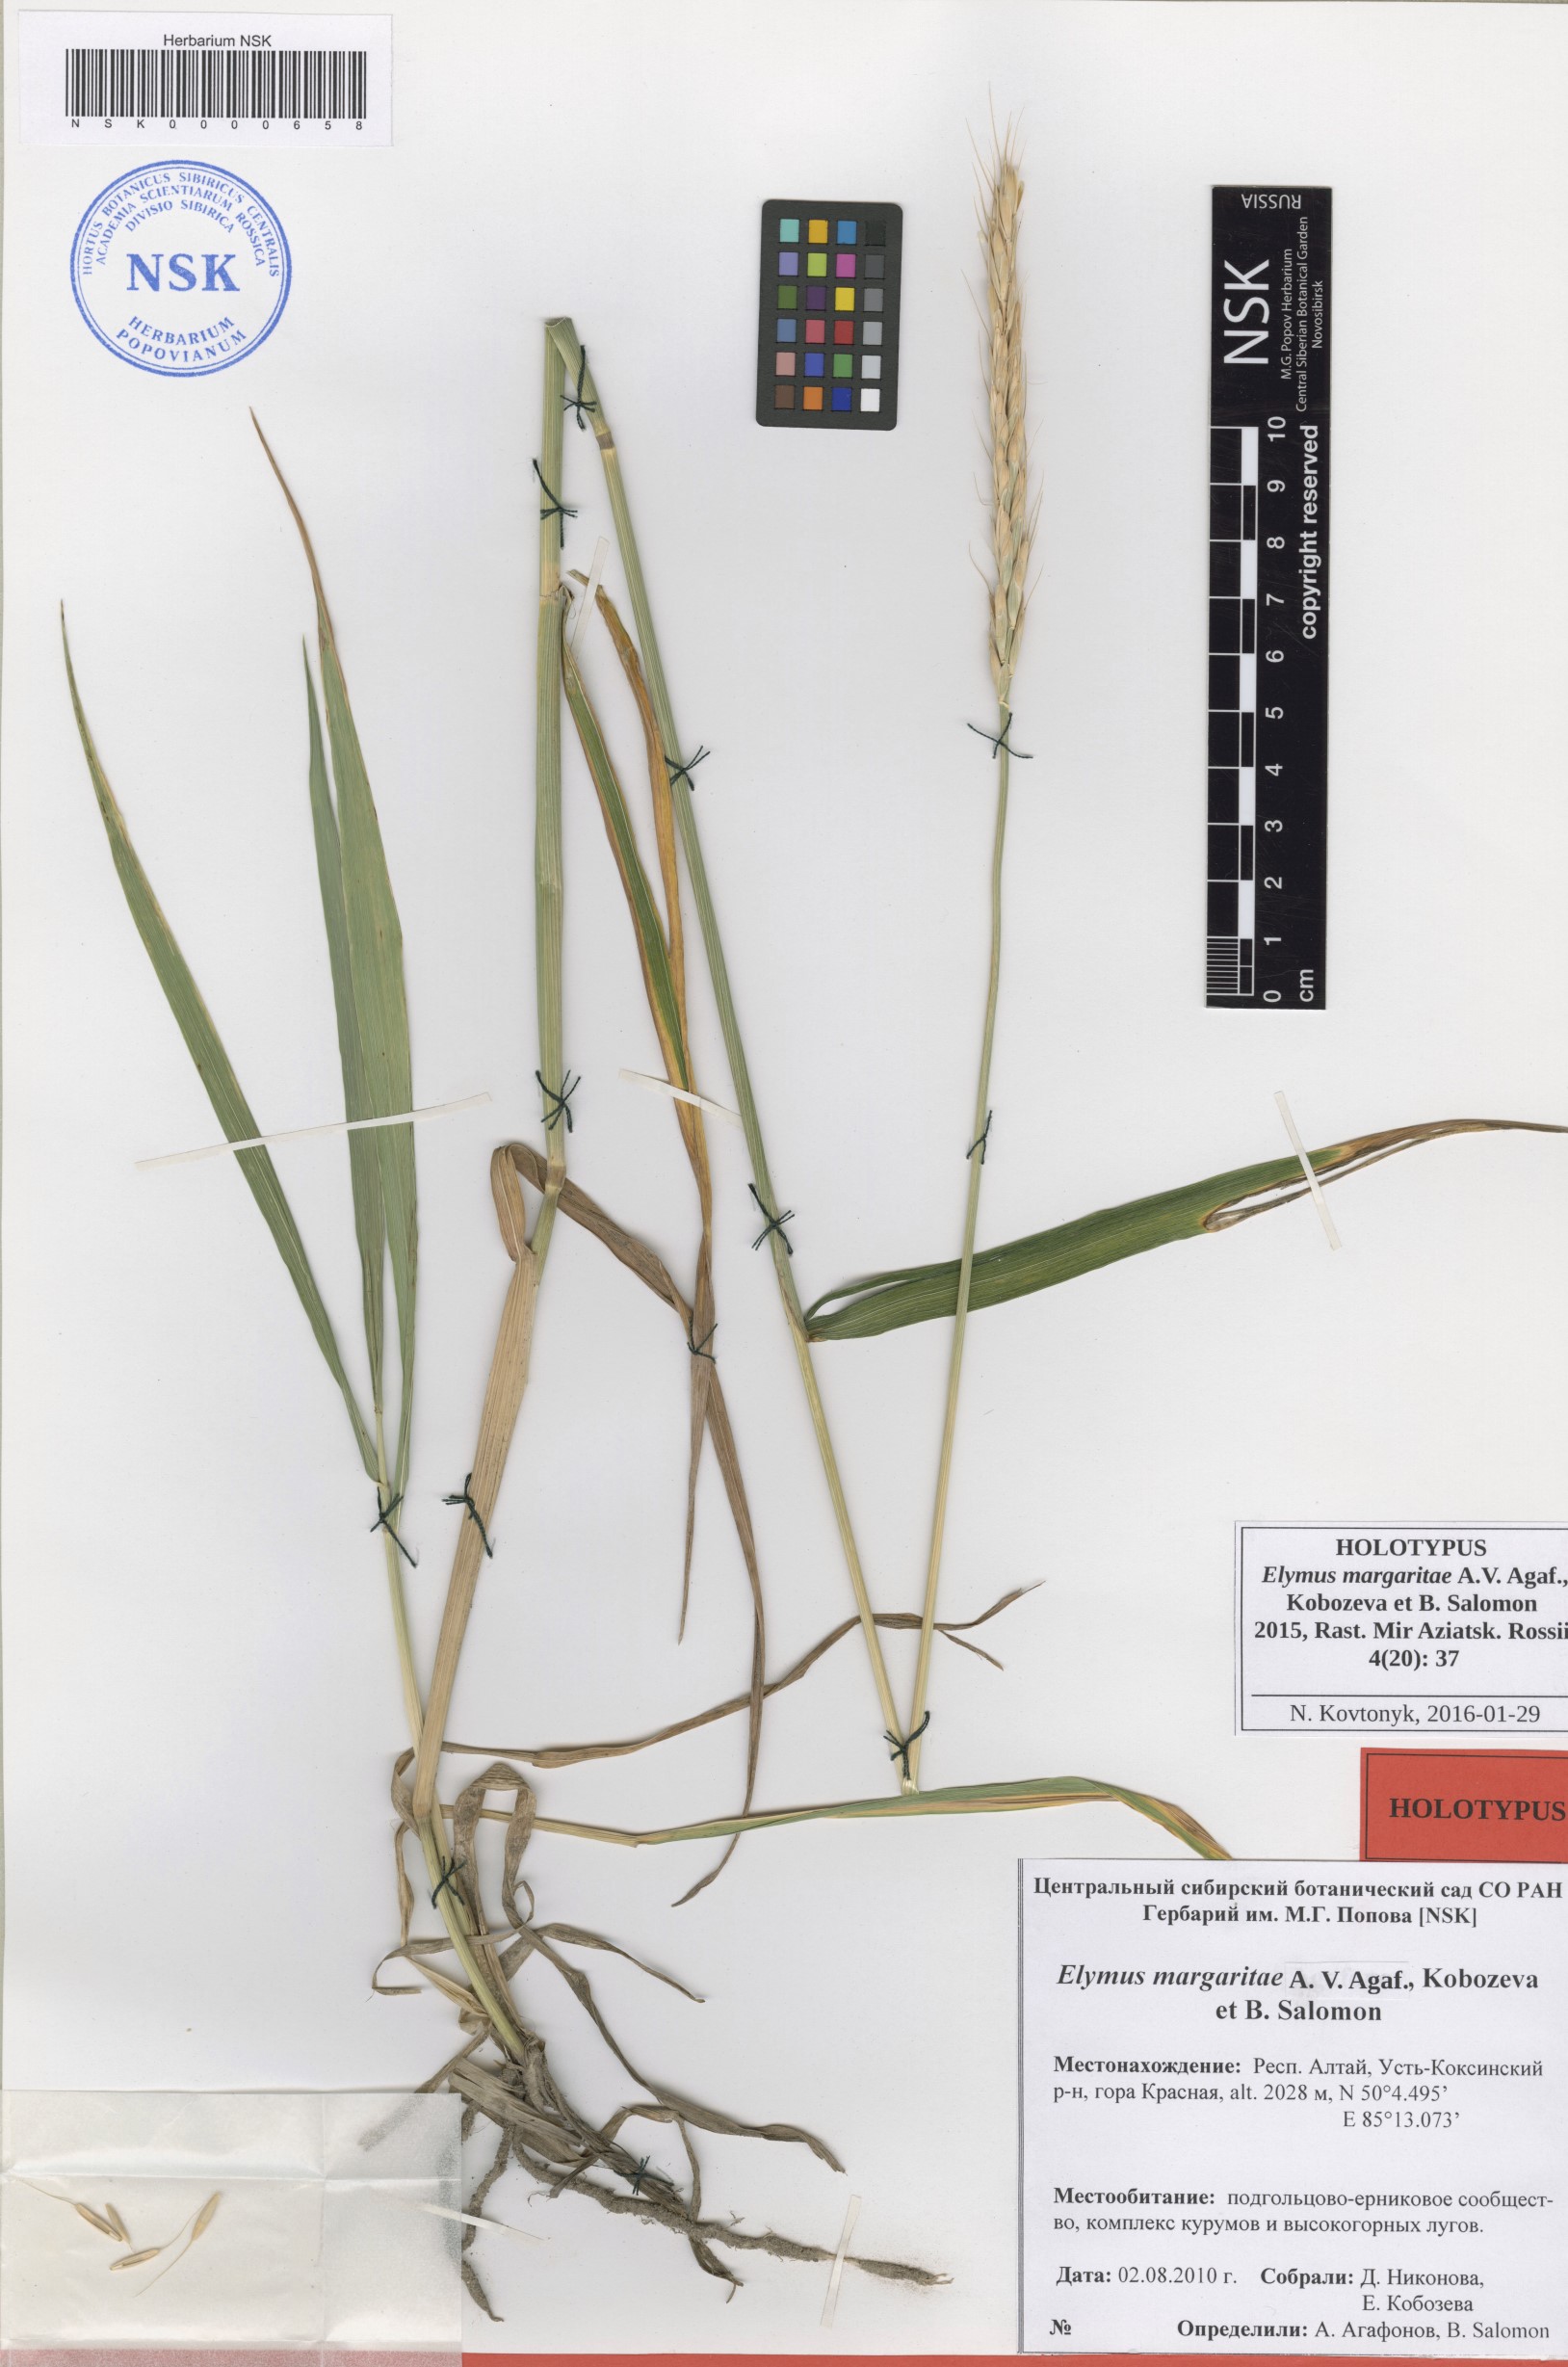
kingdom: Plantae
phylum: Tracheophyta
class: Liliopsida
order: Poales
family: Poaceae
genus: Elymus
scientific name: Elymus margaritae
